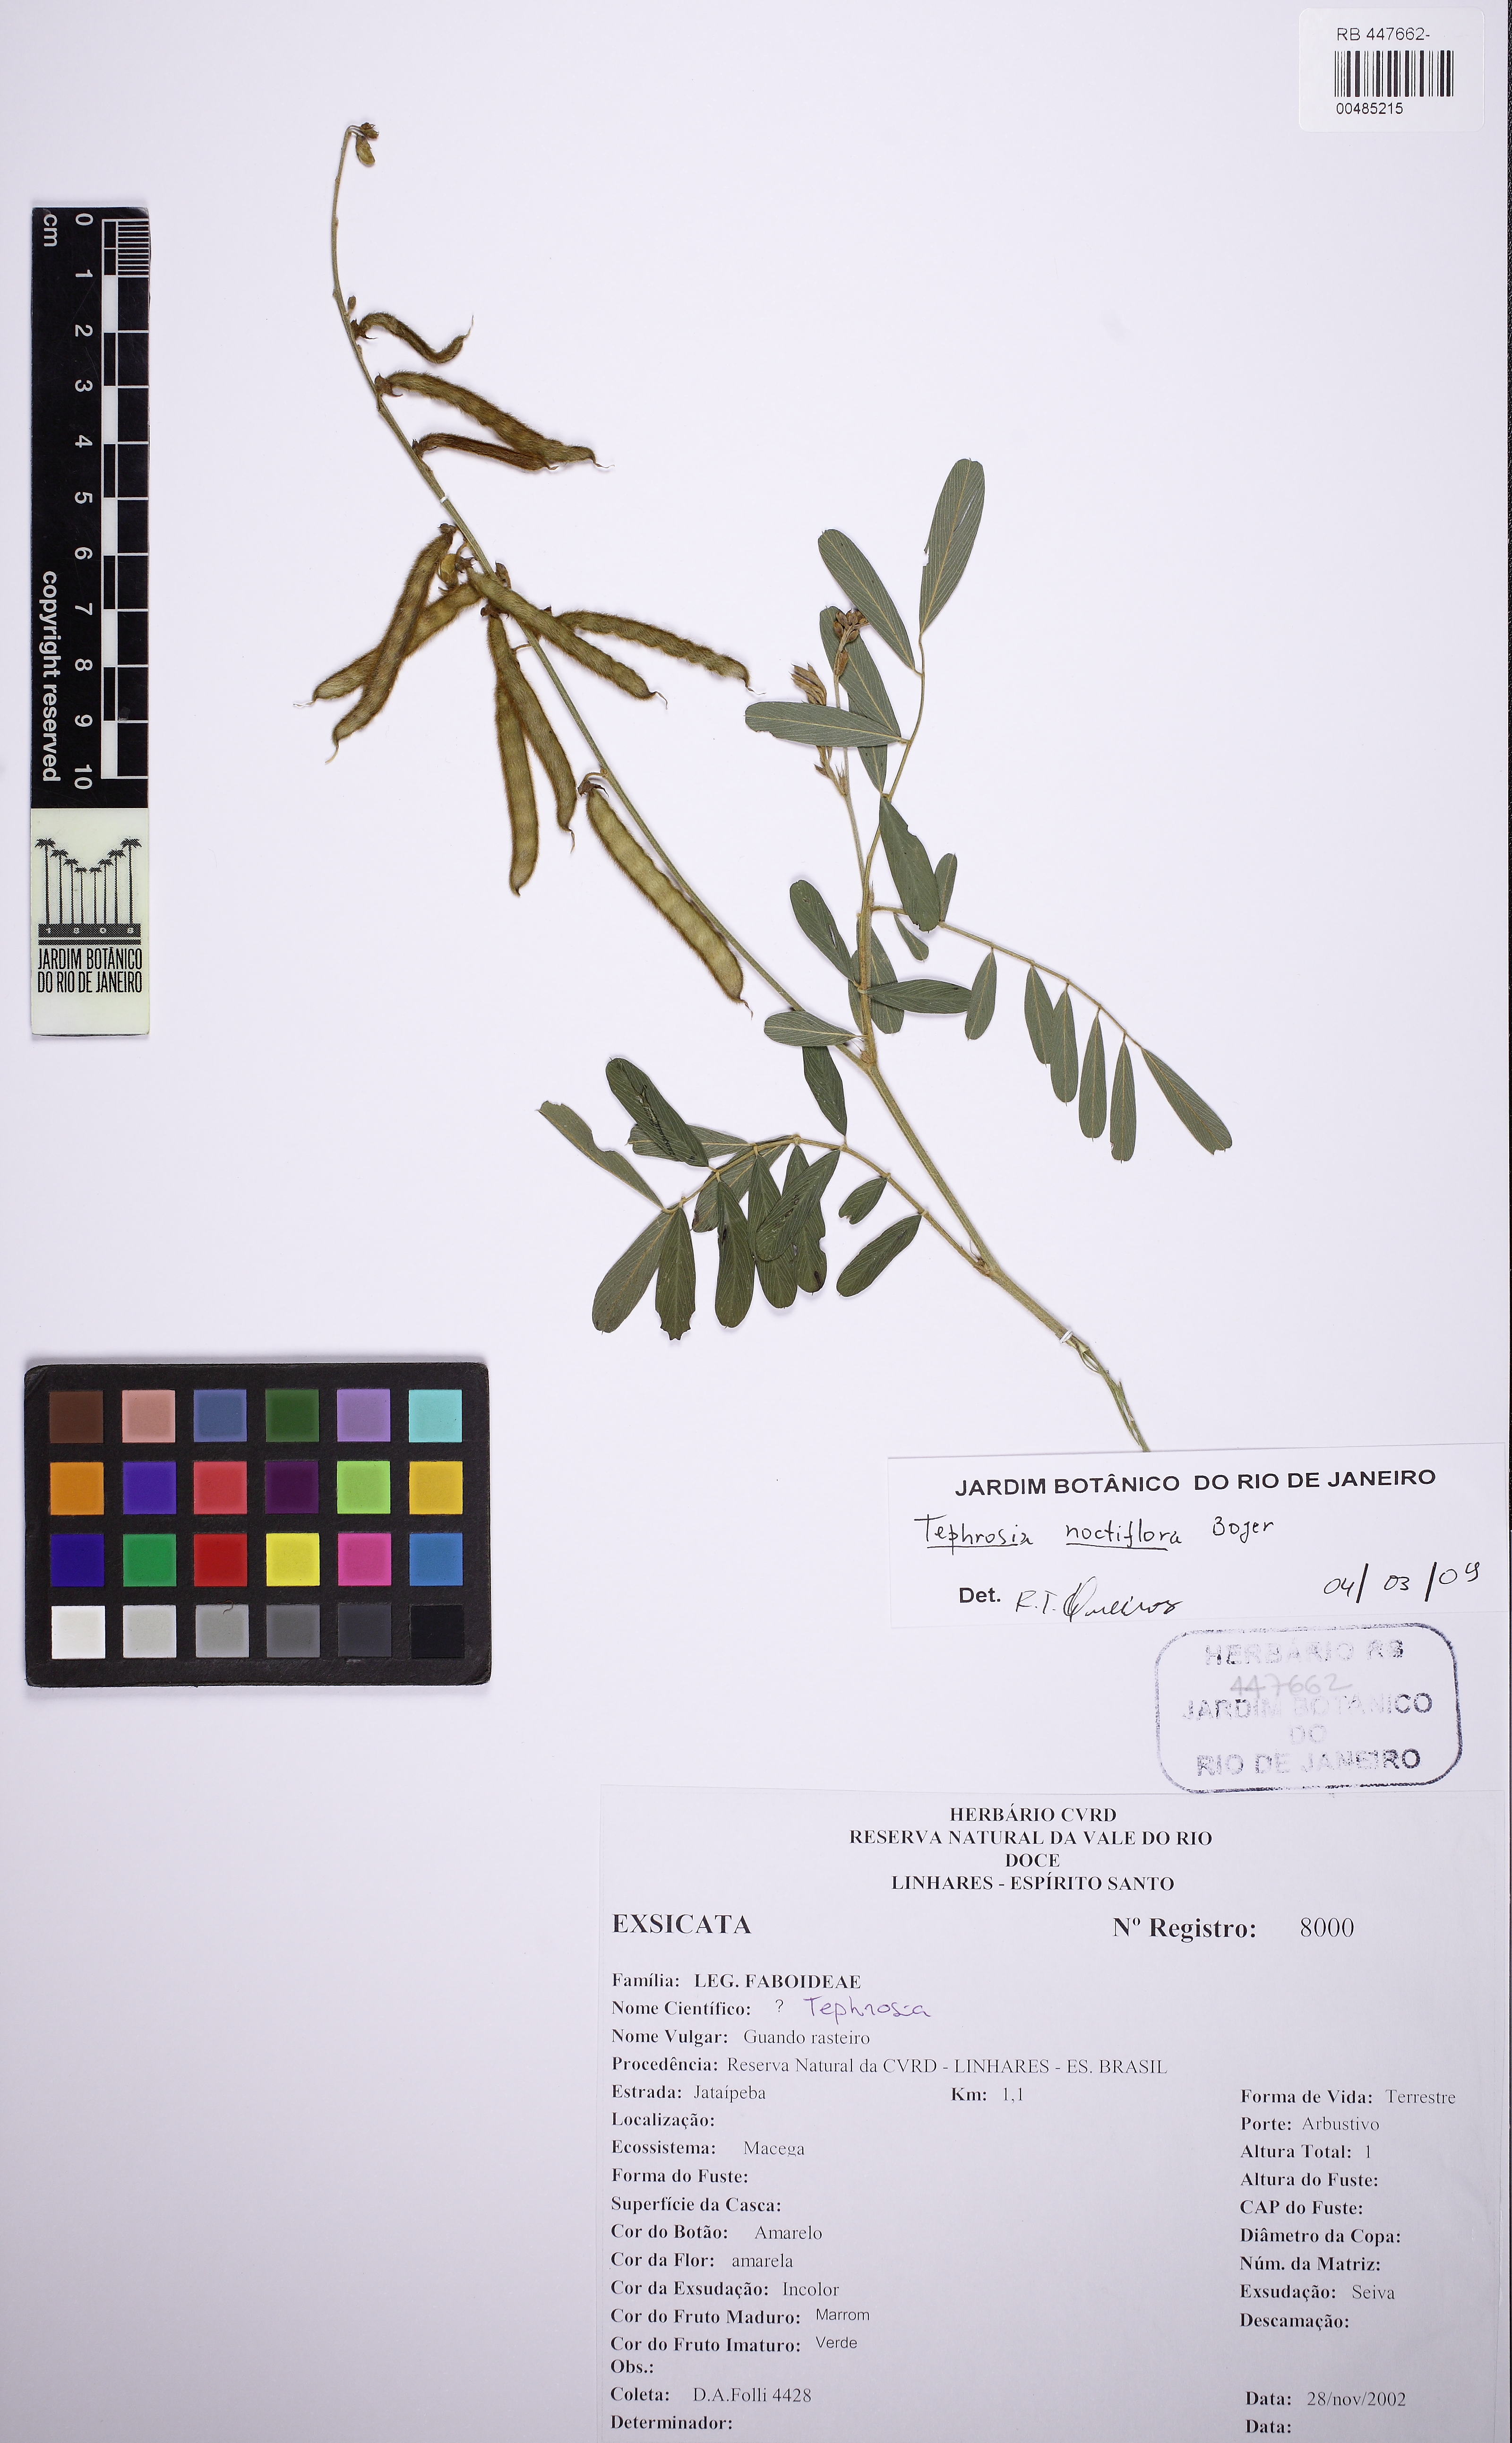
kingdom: Plantae
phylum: Tracheophyta
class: Magnoliopsida
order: Fabales
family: Fabaceae
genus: Tephrosia
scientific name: Tephrosia noctiflora
